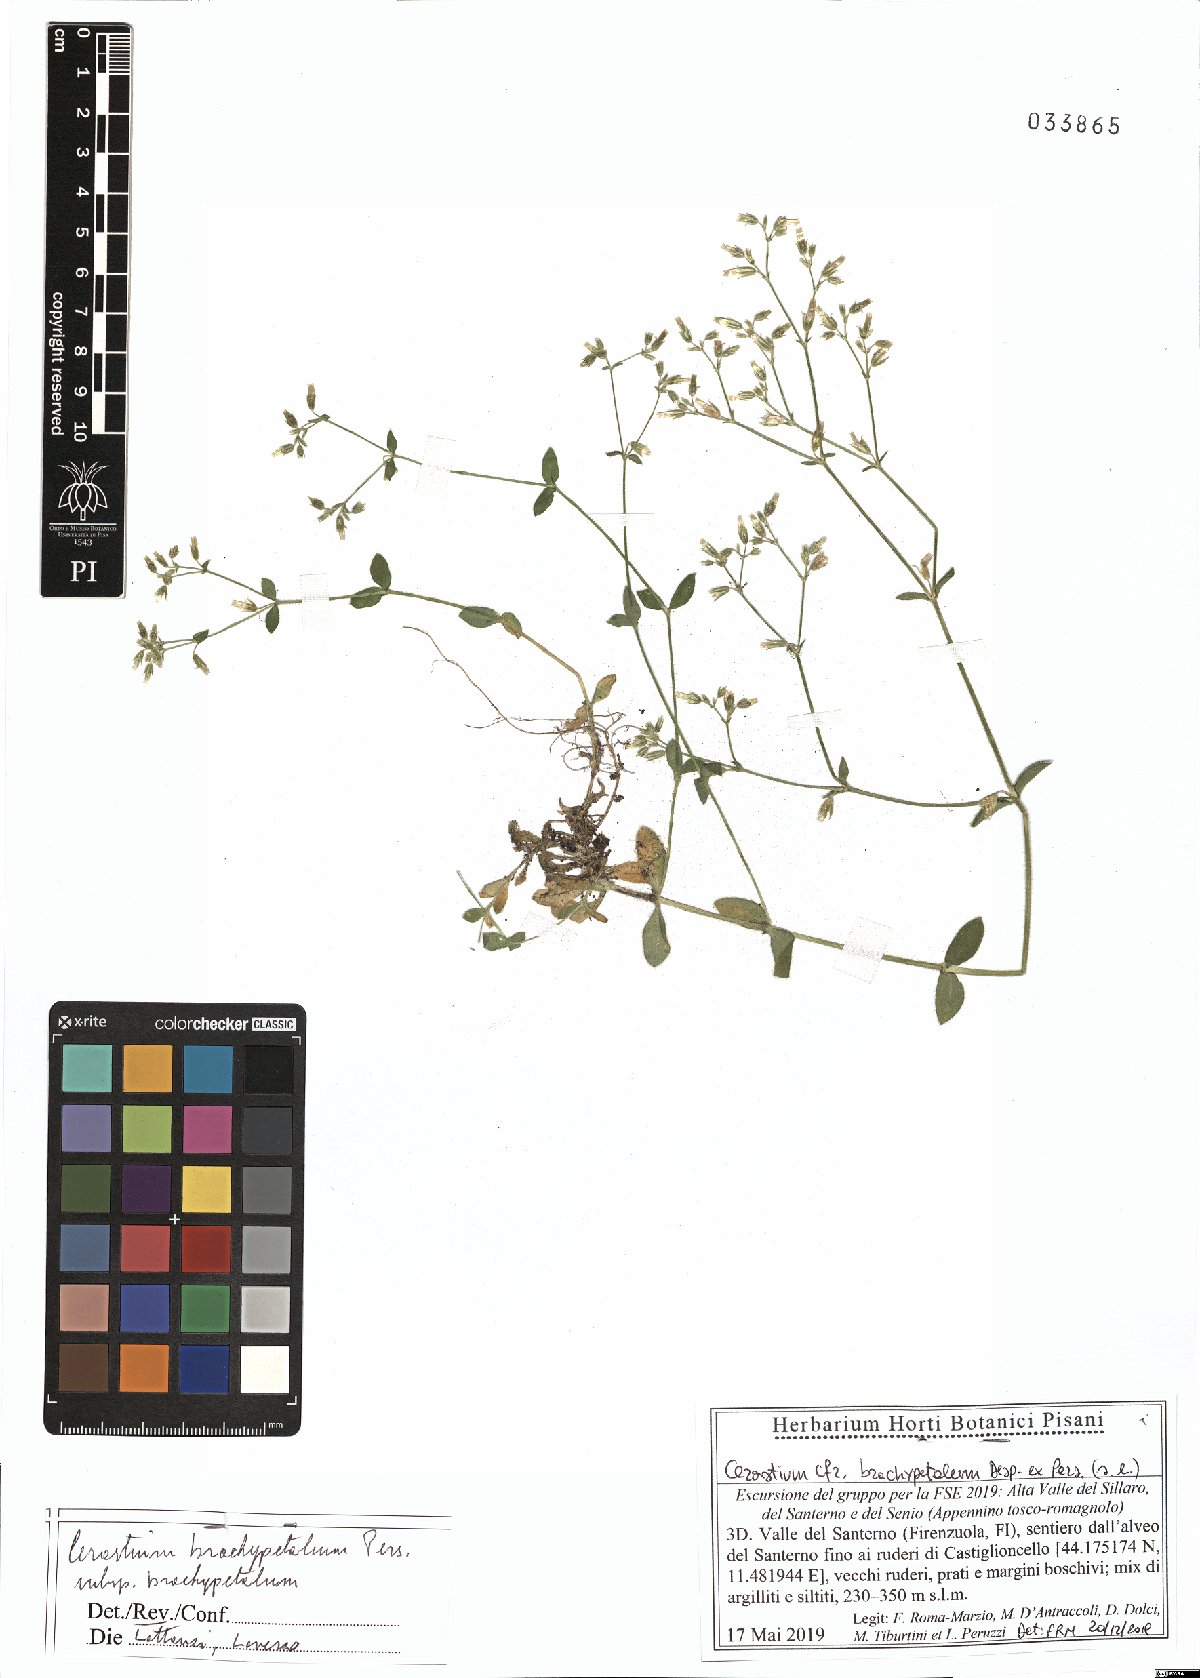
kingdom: Plantae
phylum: Tracheophyta
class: Magnoliopsida
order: Caryophyllales
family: Caryophyllaceae
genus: Cerastium
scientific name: Cerastium brachypetalum
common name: Grey mouse-ear
